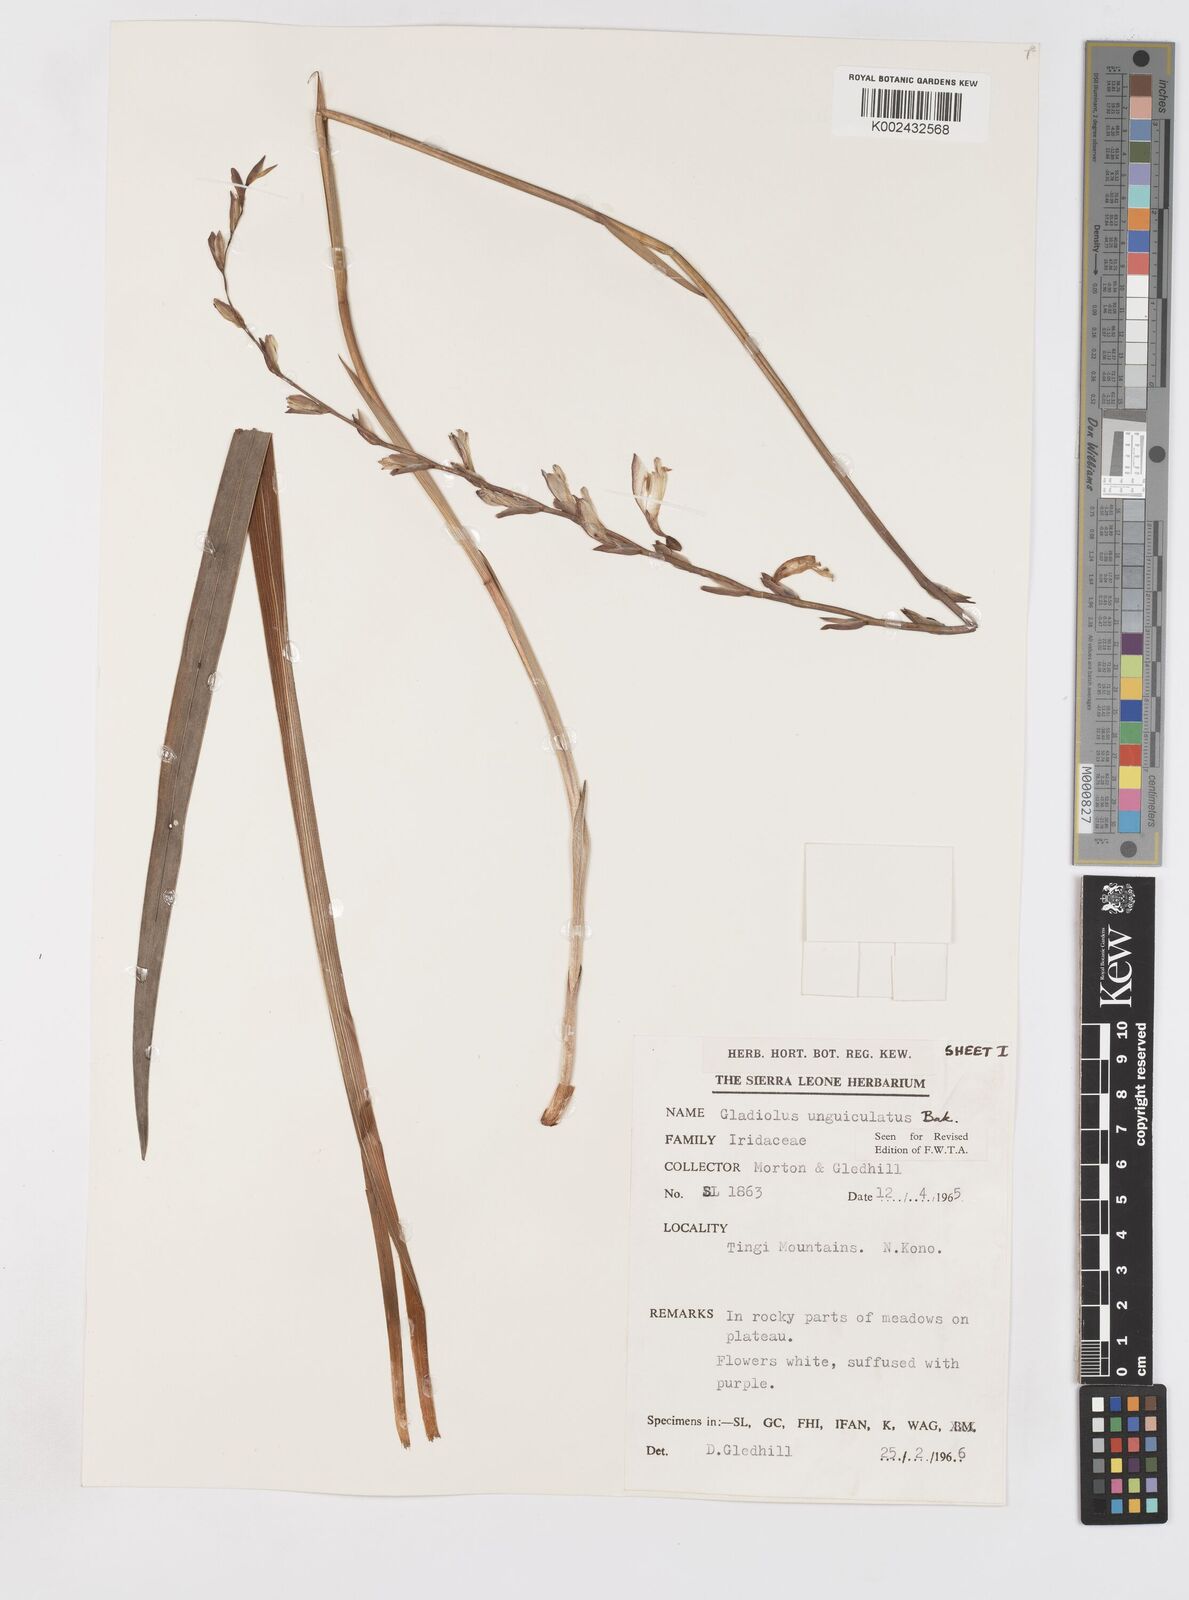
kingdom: Plantae
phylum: Tracheophyta
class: Liliopsida
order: Asparagales
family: Iridaceae
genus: Gladiolus
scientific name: Gladiolus unguiculatus
